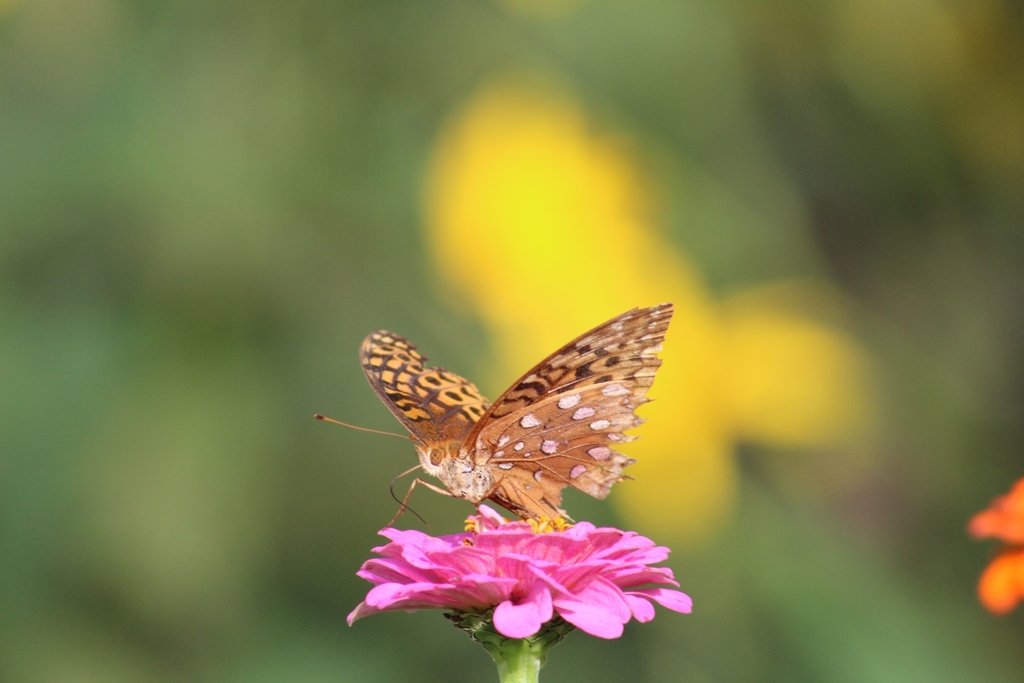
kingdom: Animalia
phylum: Arthropoda
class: Insecta
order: Lepidoptera
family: Nymphalidae
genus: Speyeria
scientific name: Speyeria cybele
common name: Great Spangled Fritillary
